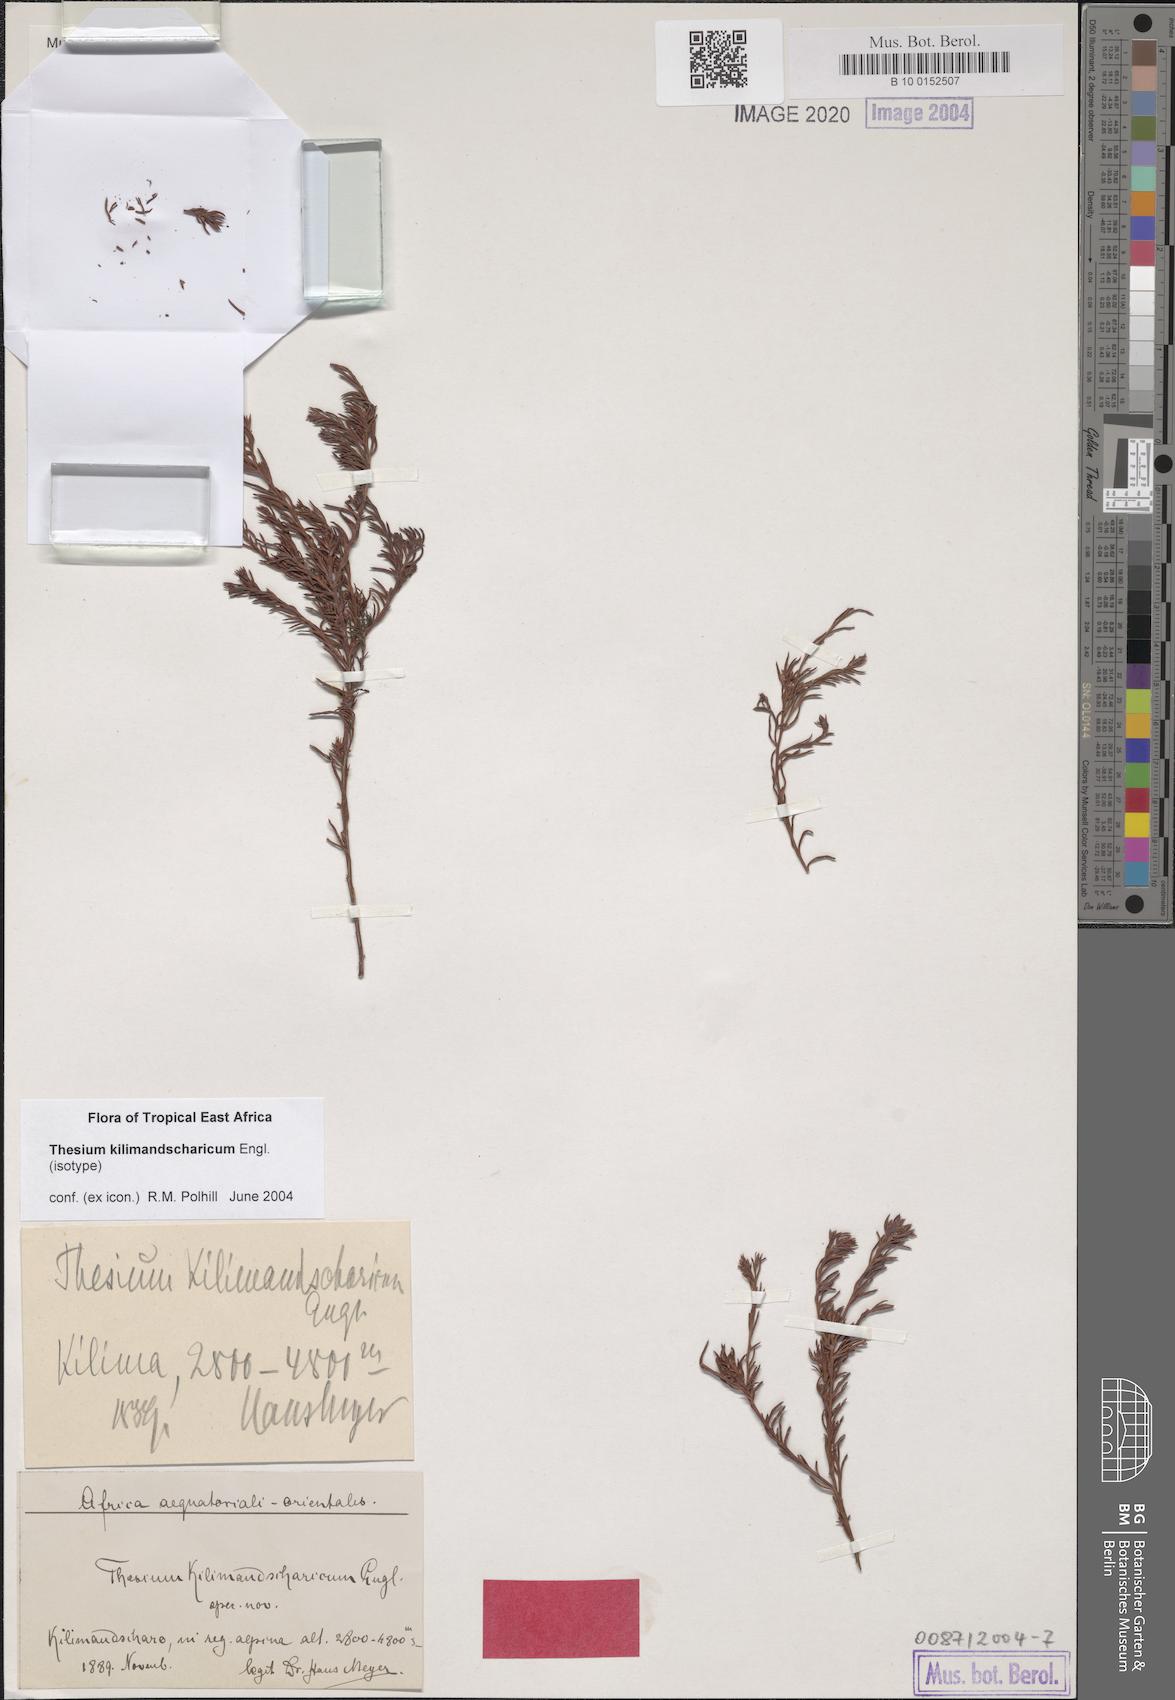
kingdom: Plantae
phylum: Tracheophyta
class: Magnoliopsida
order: Santalales
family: Thesiaceae
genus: Thesium
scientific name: Thesium kilimandscharicum
